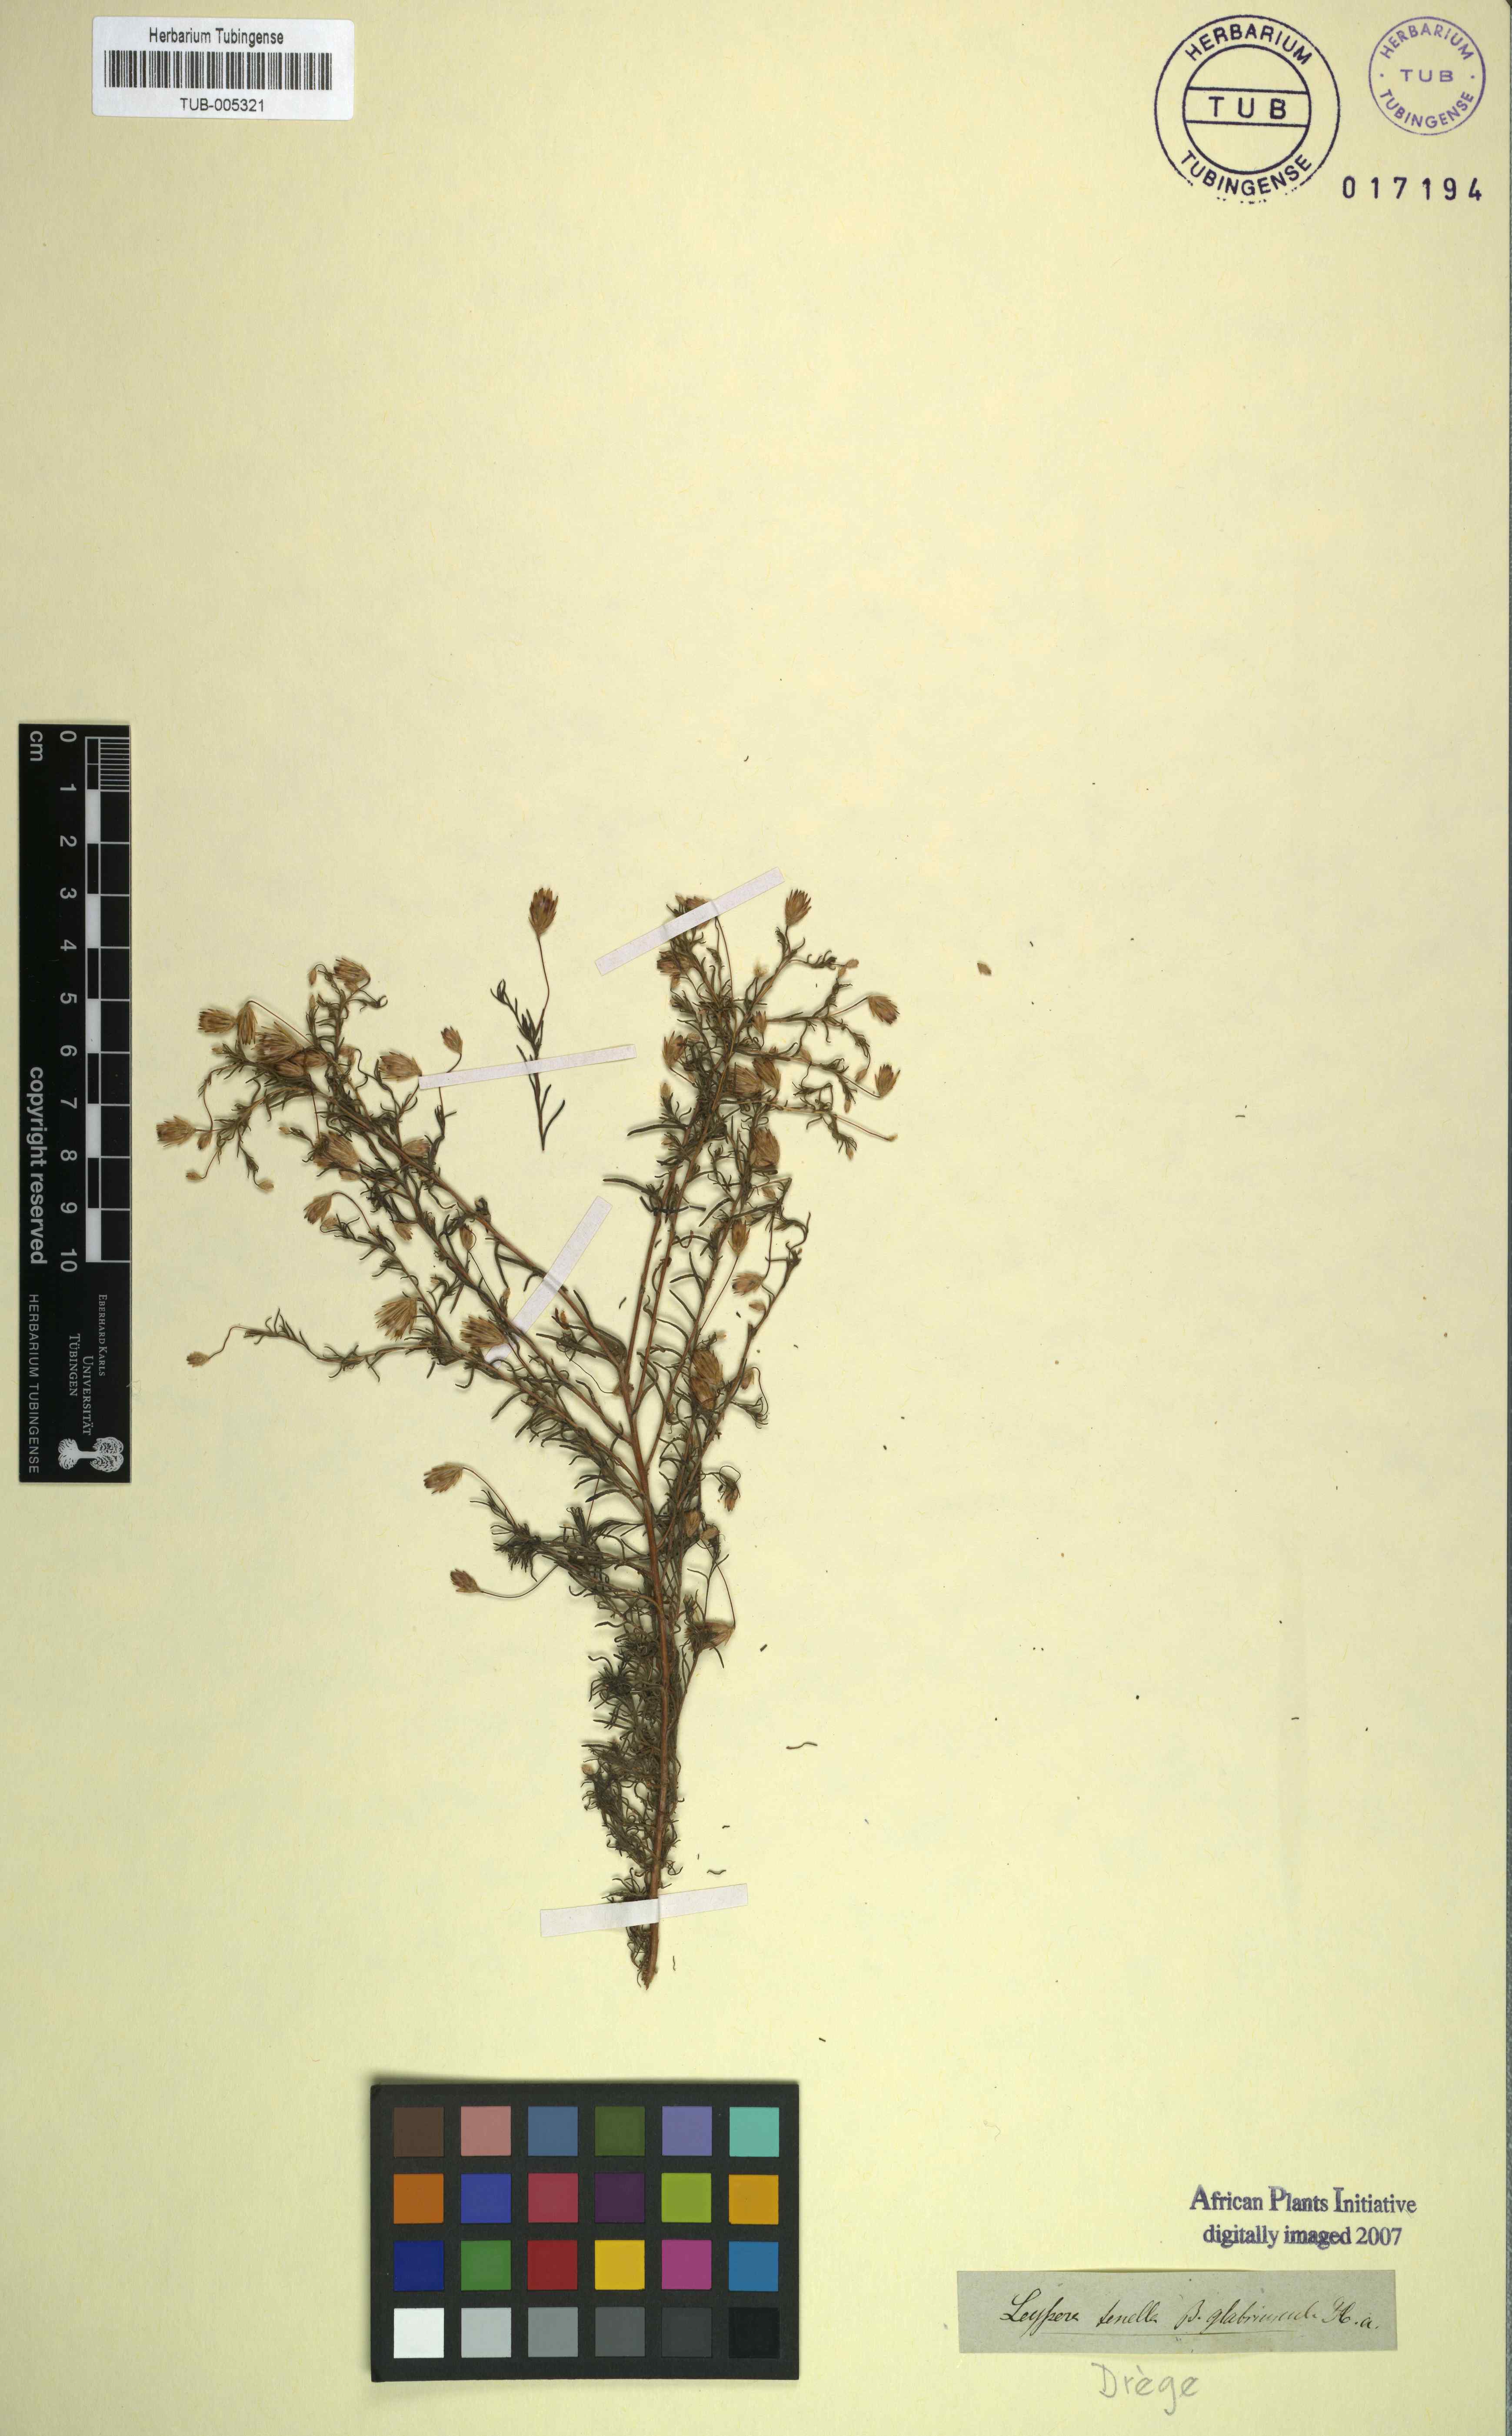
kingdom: Plantae
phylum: Tracheophyta
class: Magnoliopsida
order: Asterales
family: Asteraceae
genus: Leysera
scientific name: Leysera tenella
